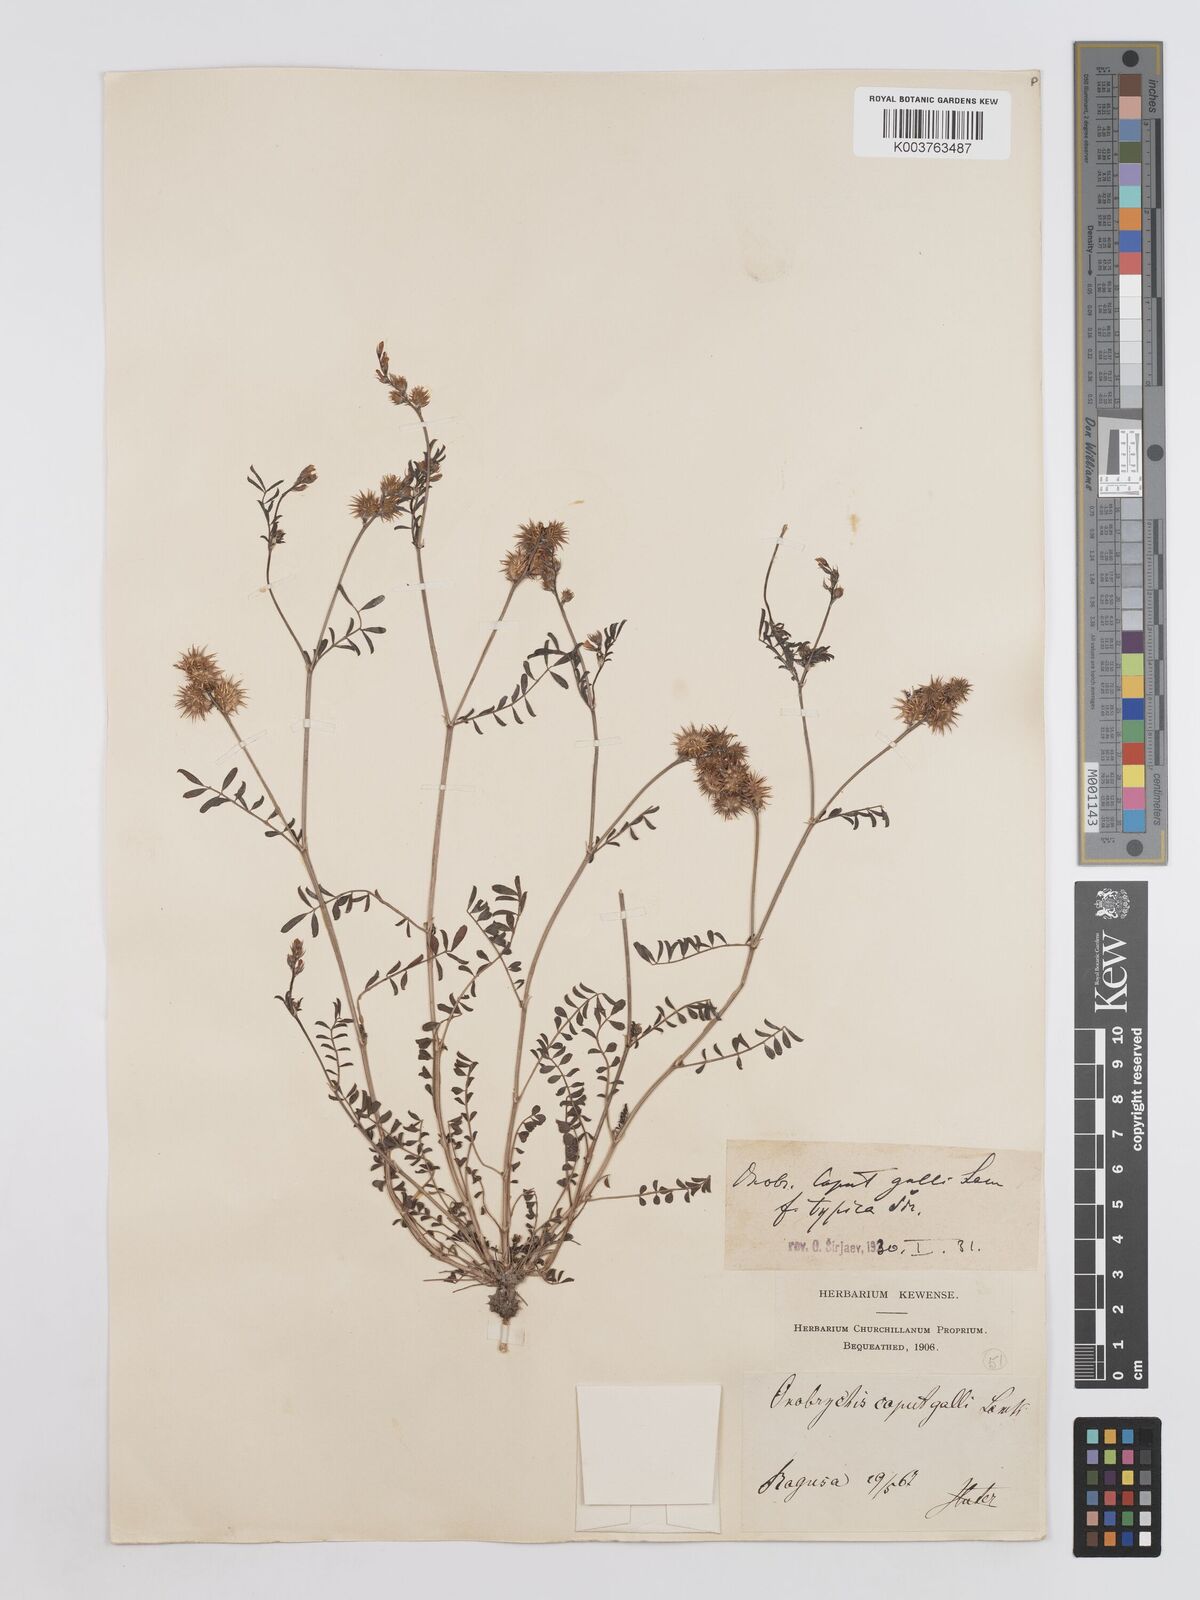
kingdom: Plantae
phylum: Tracheophyta
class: Magnoliopsida
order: Fabales
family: Fabaceae
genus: Onobrychis
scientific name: Onobrychis caput-galli
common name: Cockscomb sainfoin
